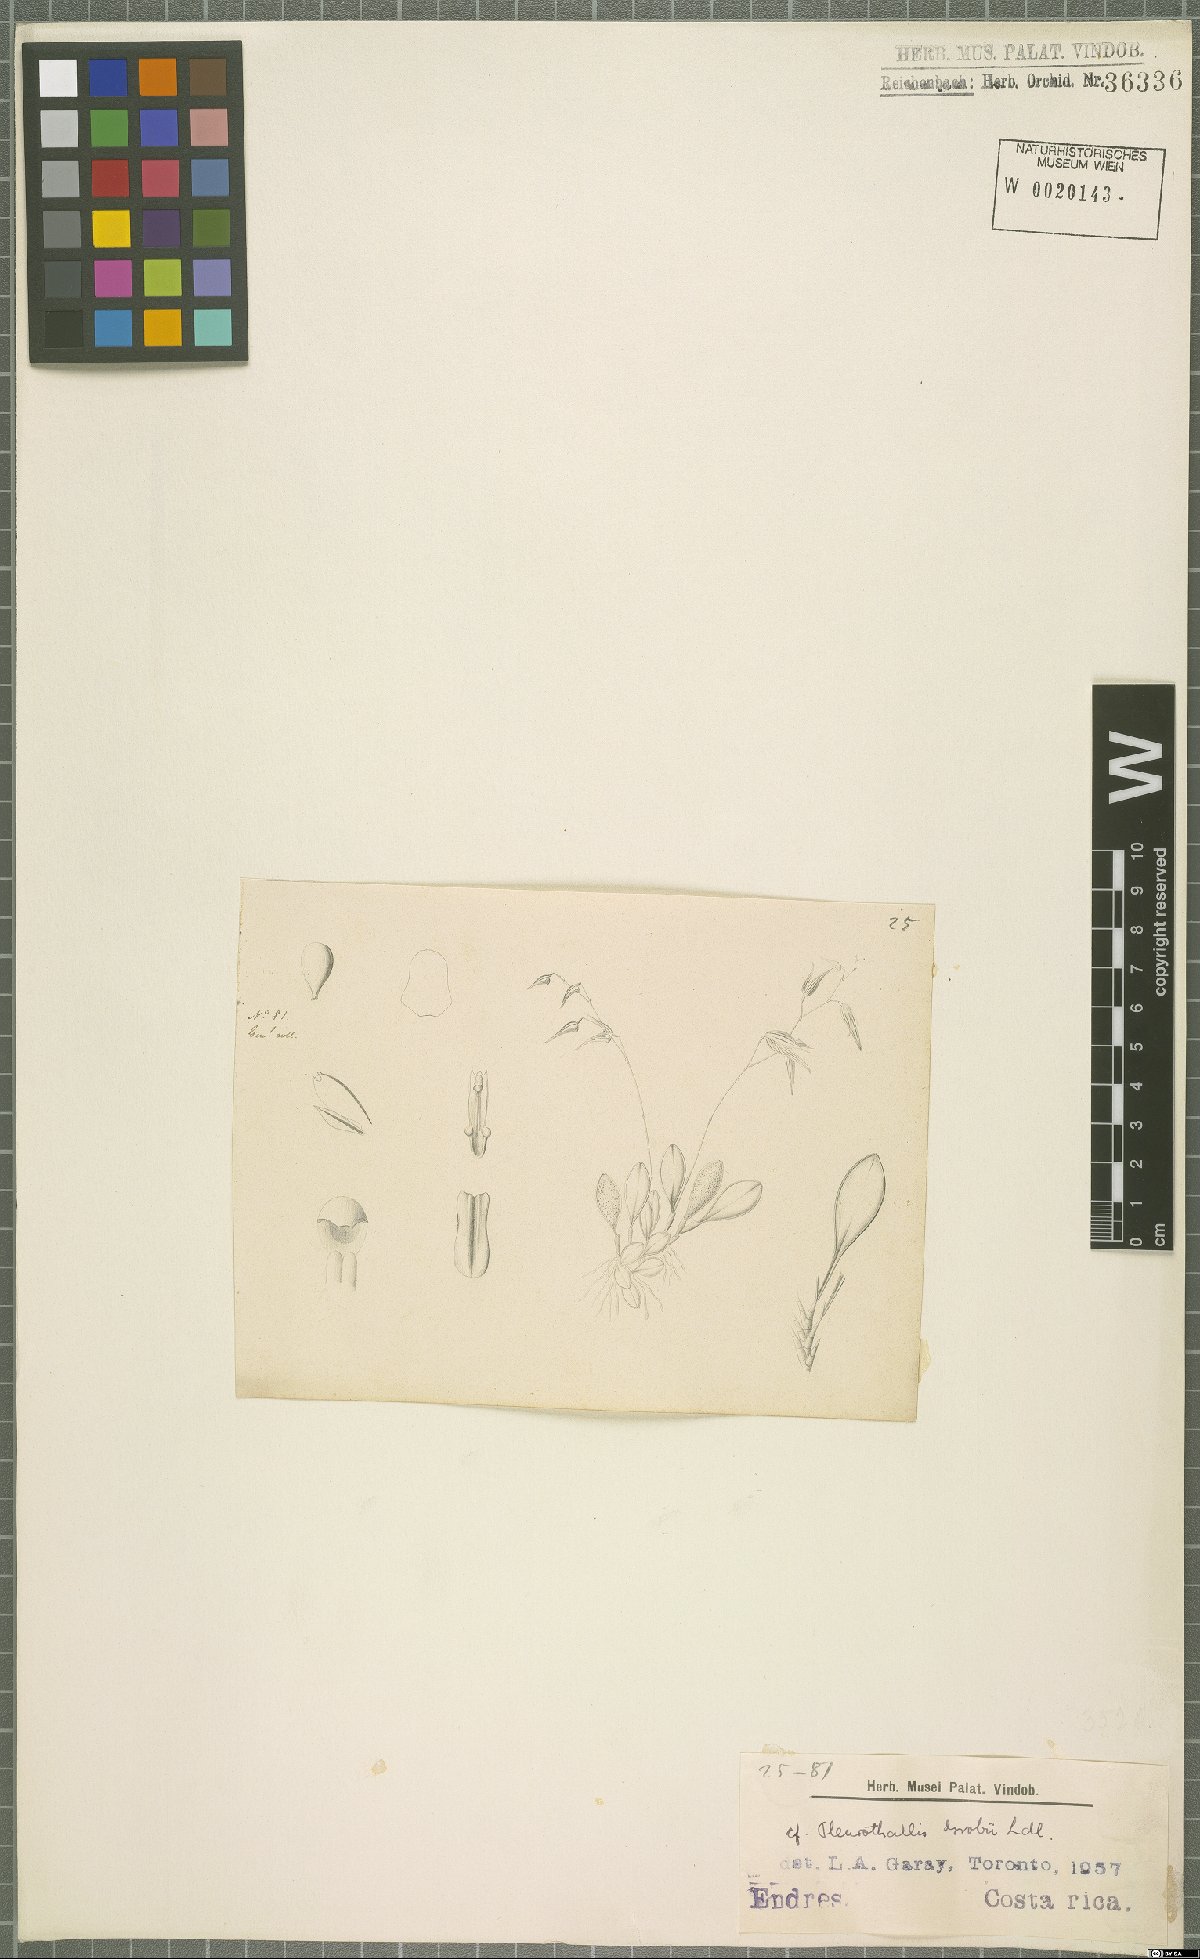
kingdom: Plantae
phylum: Tracheophyta
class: Liliopsida
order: Asparagales
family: Orchidaceae
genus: Specklinia
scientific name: Specklinia grobyi
